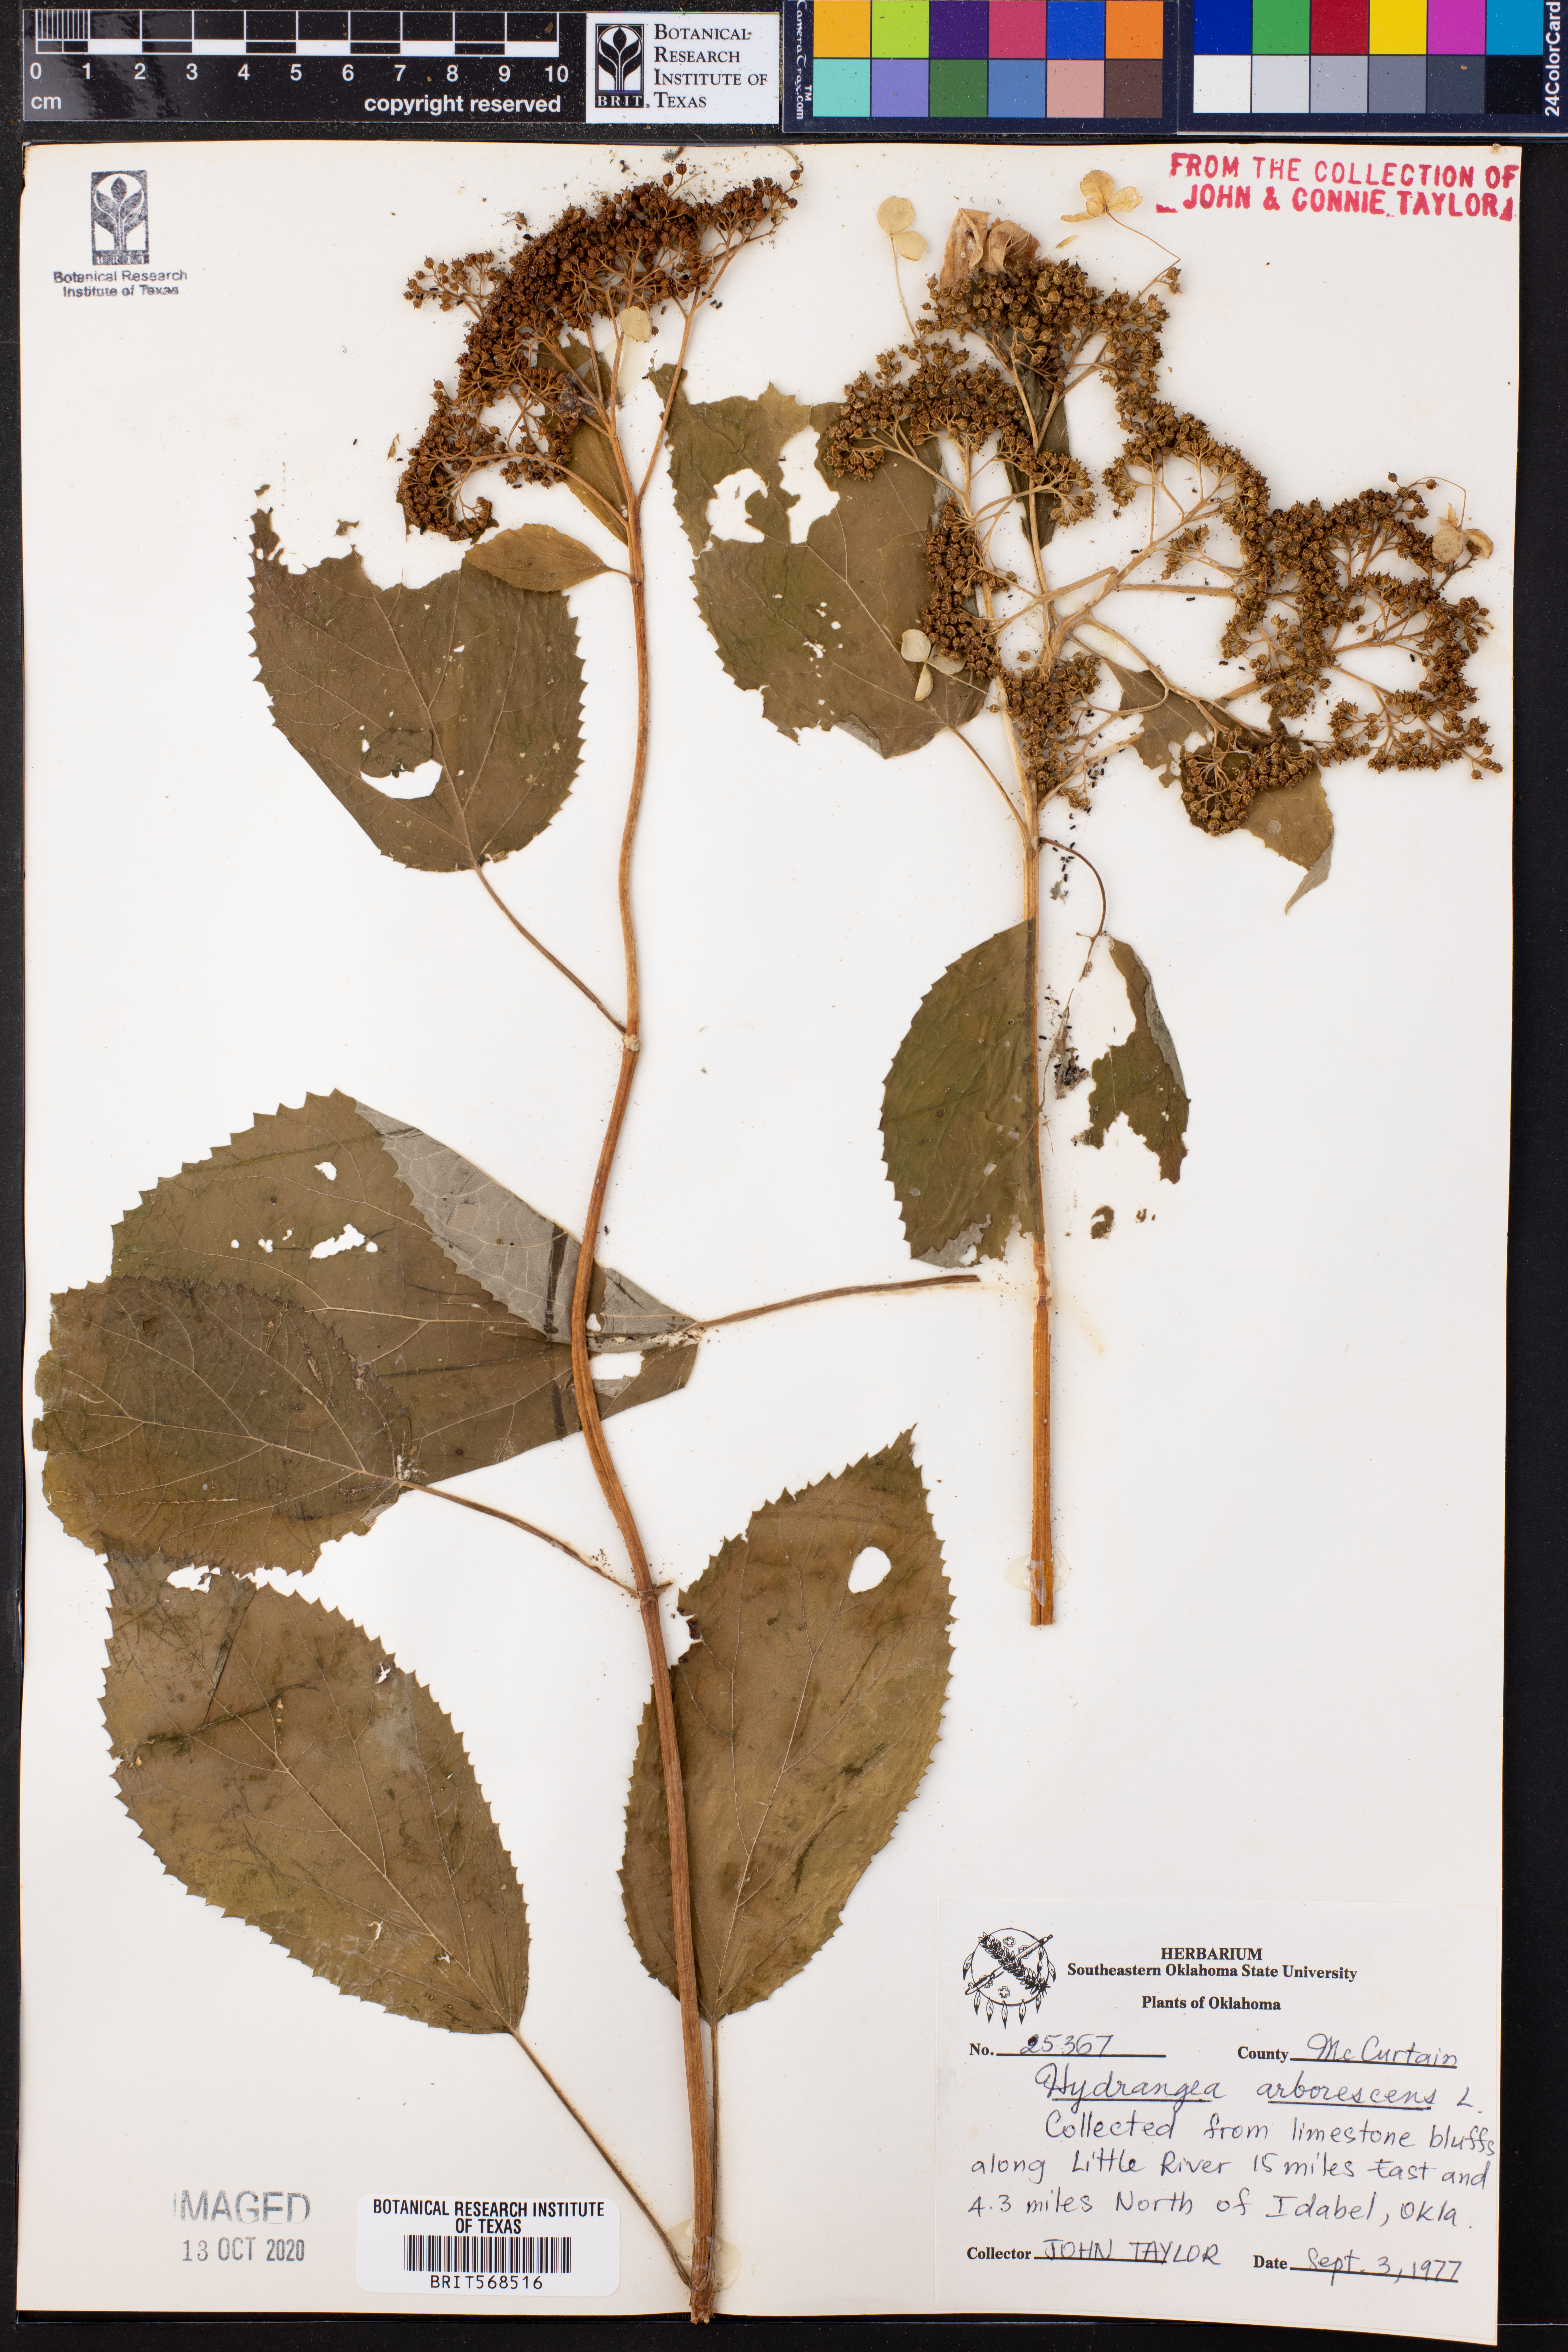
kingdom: Plantae
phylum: Tracheophyta
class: Magnoliopsida
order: Cornales
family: Hydrangeaceae
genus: Hydrangea
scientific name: Hydrangea arborescens
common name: Sevenbark
